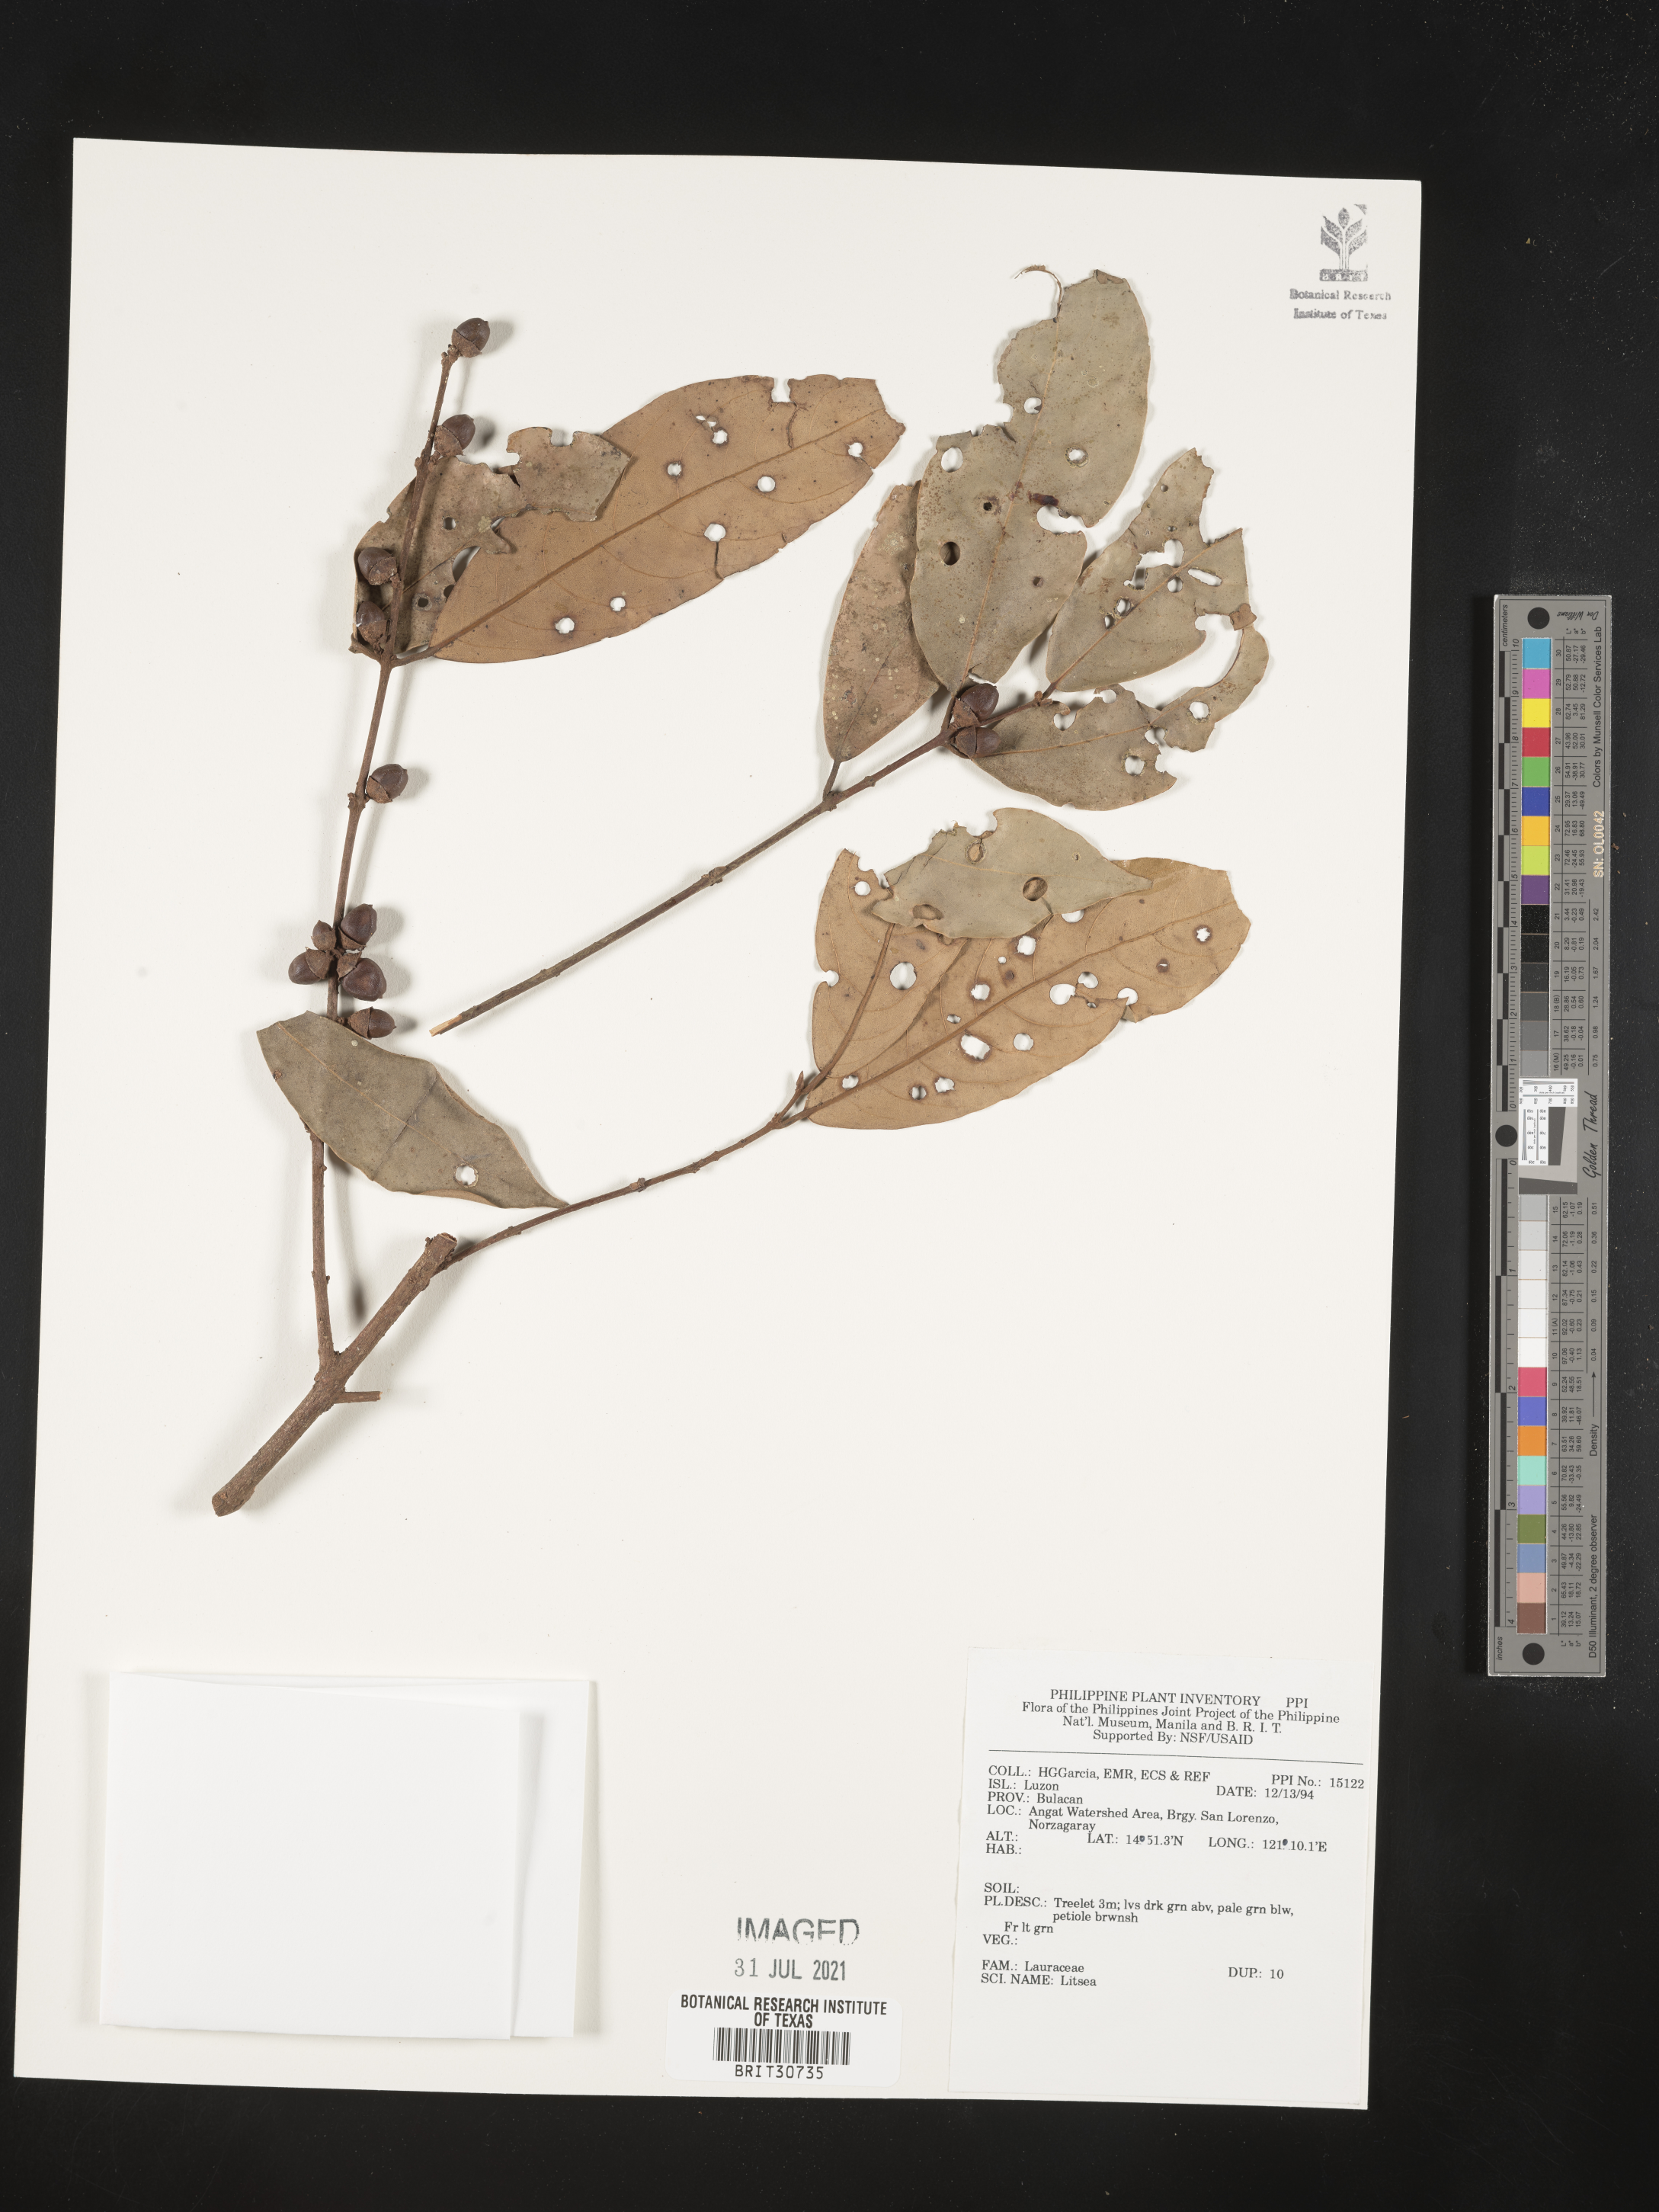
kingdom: Plantae
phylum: Tracheophyta
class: Magnoliopsida
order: Laurales
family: Lauraceae
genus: Litsea
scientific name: Litsea
